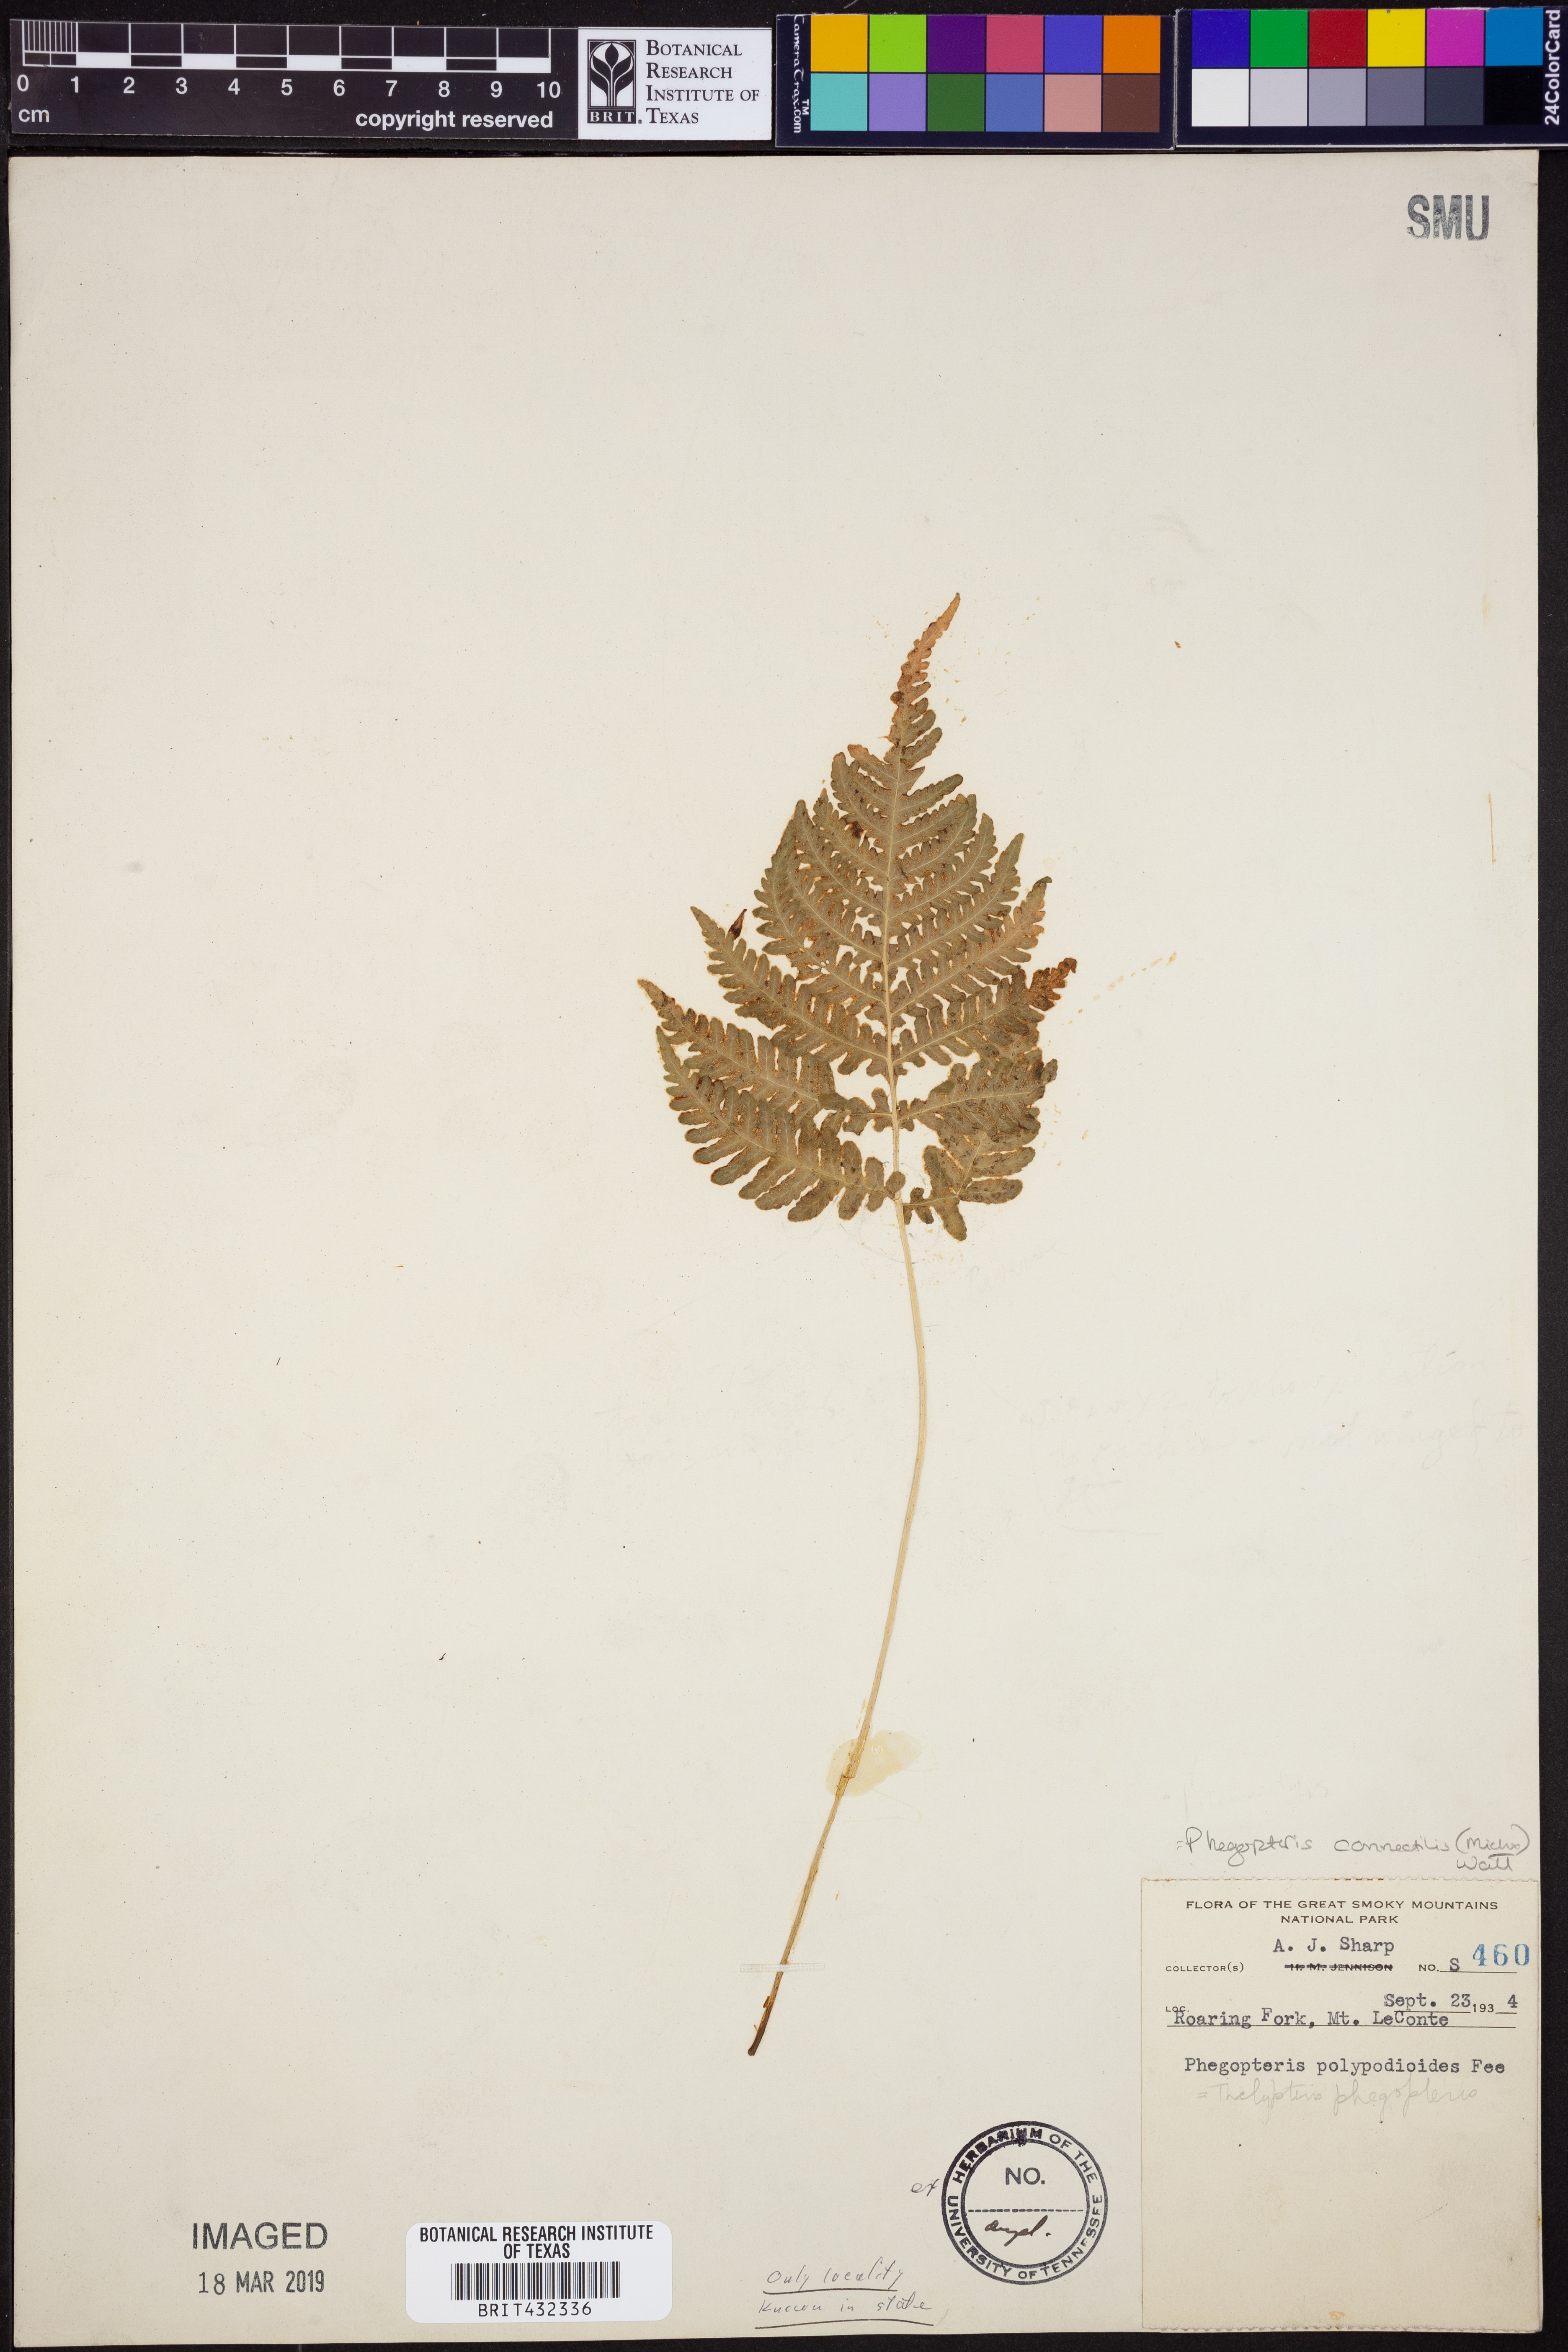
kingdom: Plantae
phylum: Tracheophyta
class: Polypodiopsida
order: Polypodiales
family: Thelypteridaceae
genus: Phegopteris
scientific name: Phegopteris connectilis
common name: Beech fern
